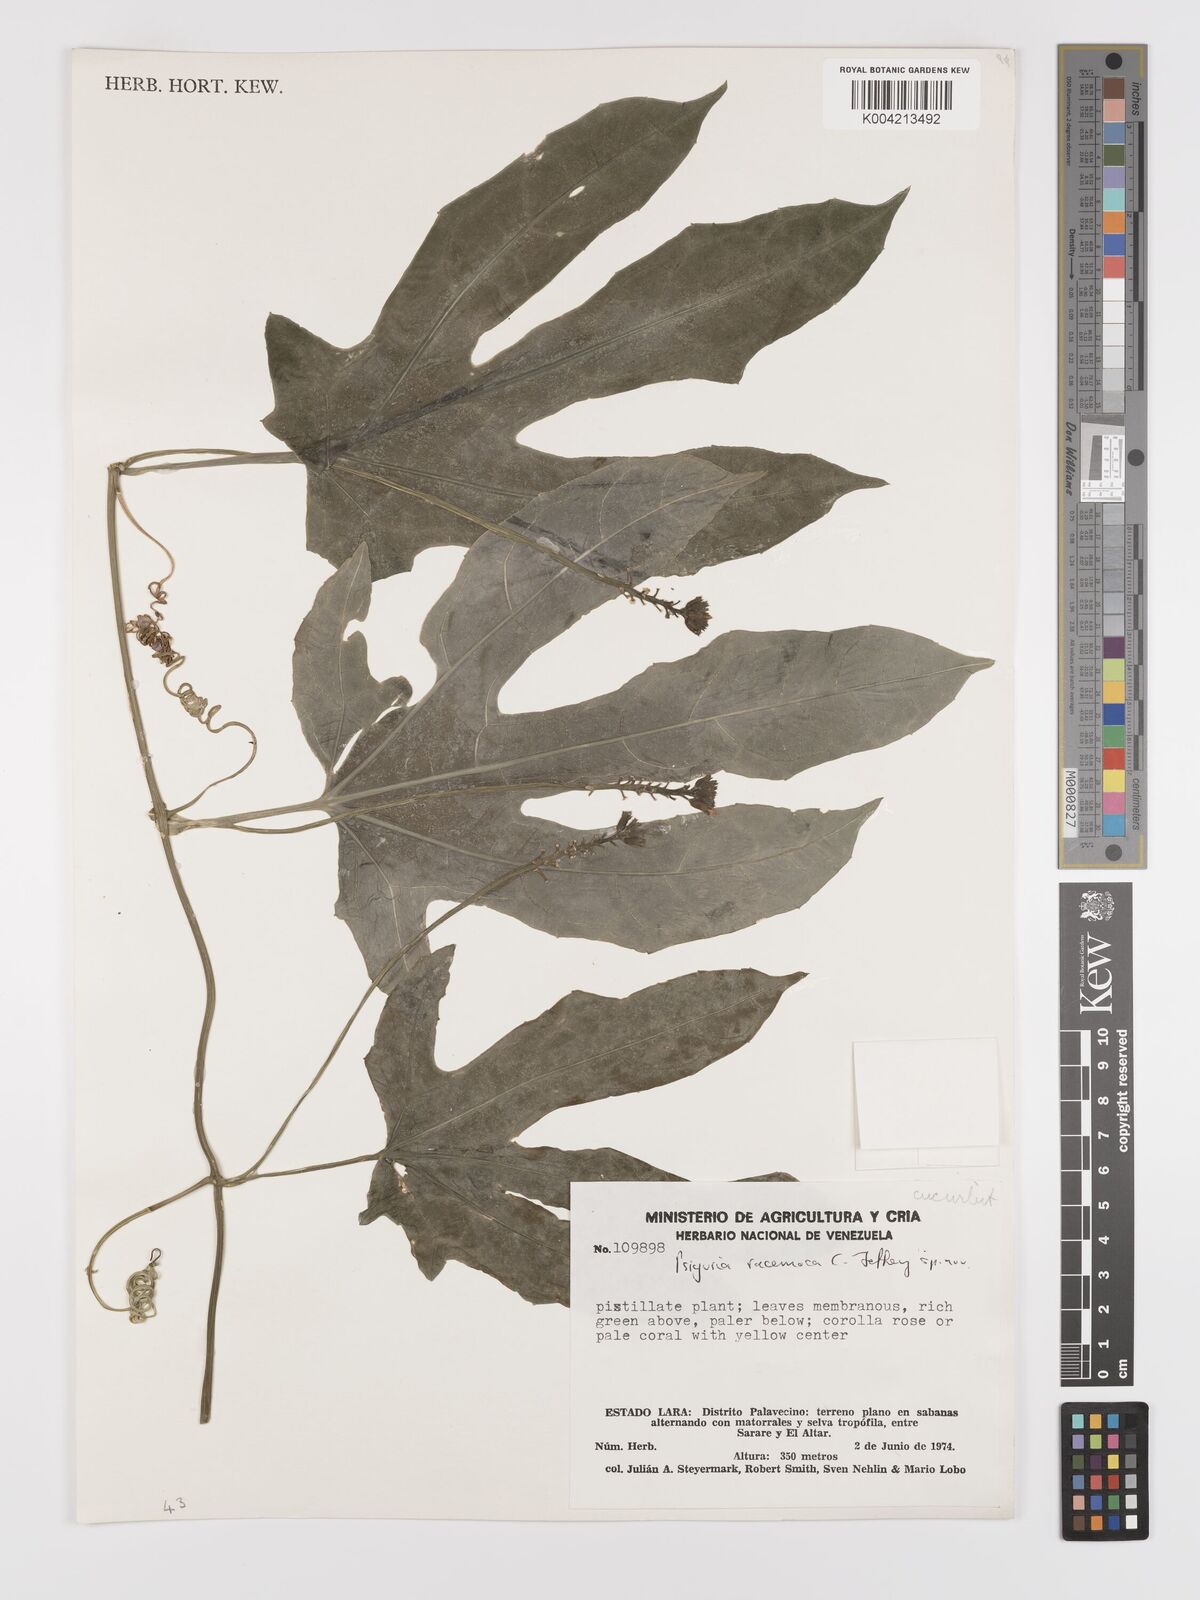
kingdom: Plantae
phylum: Tracheophyta
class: Magnoliopsida
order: Cucurbitales
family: Cucurbitaceae
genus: Psiguria
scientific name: Psiguria racemosa
